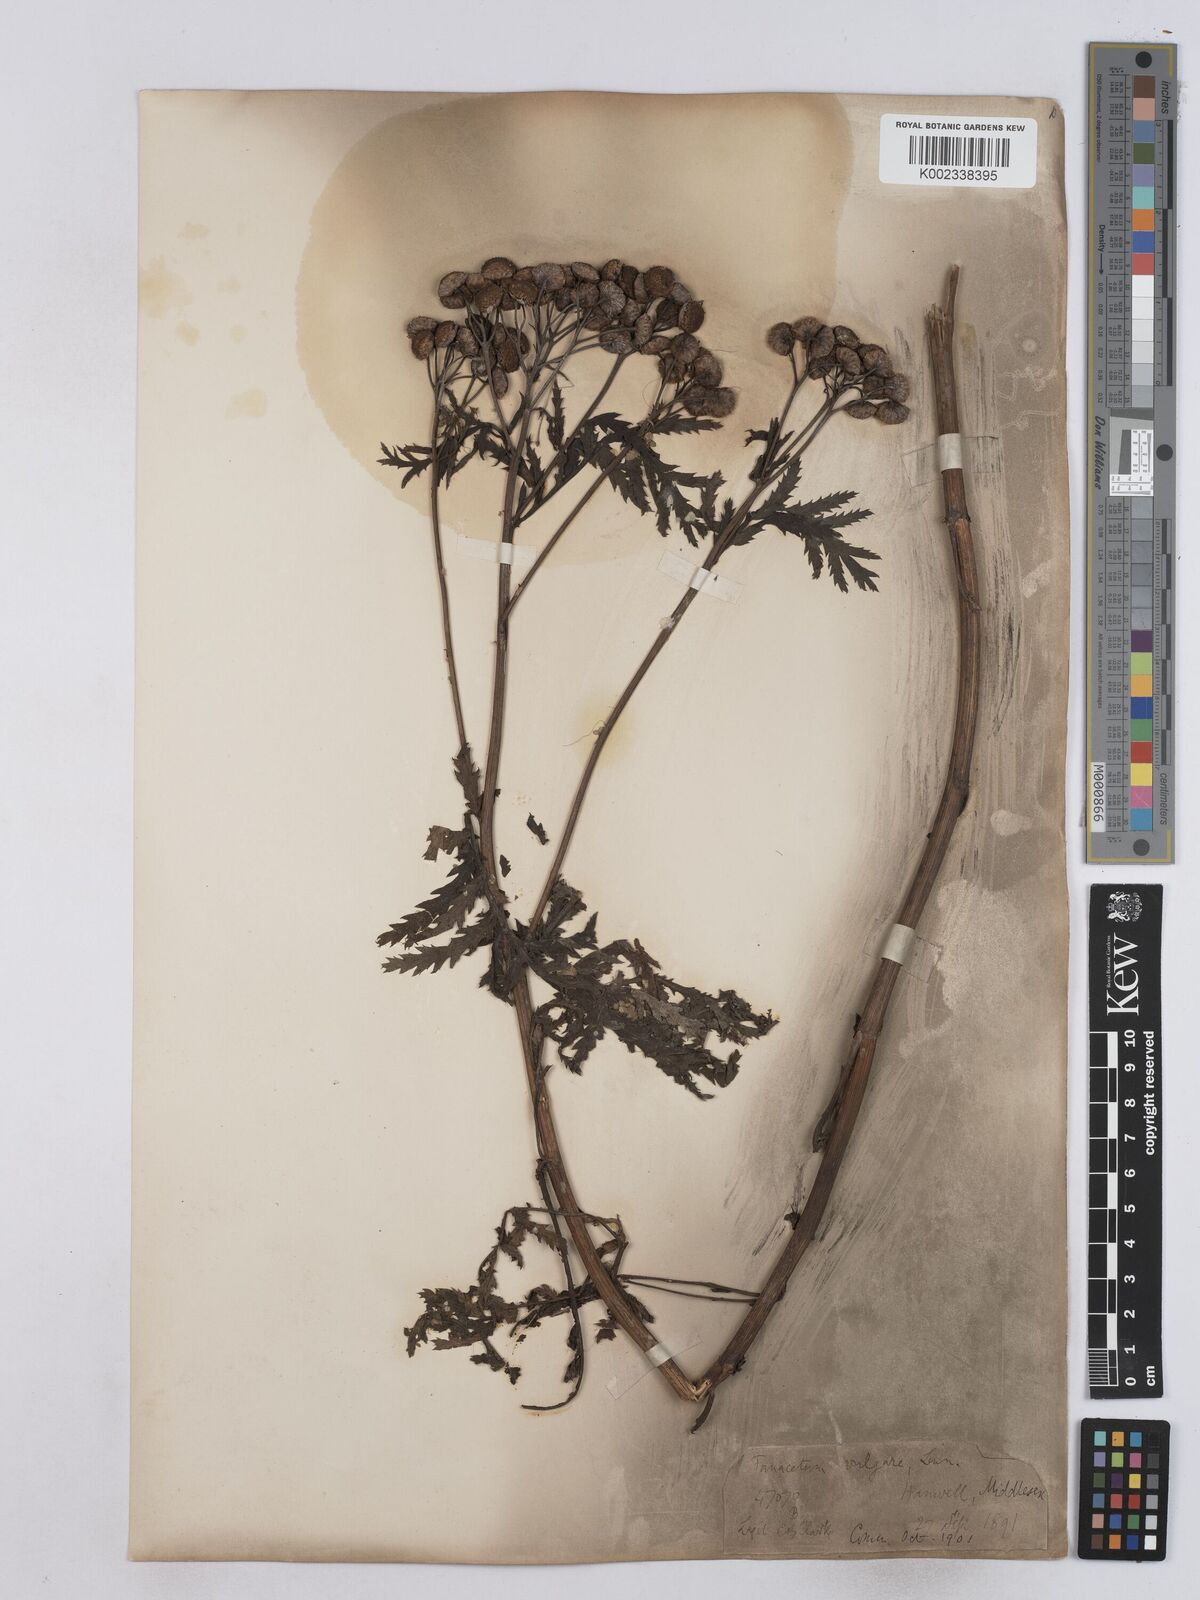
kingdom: Plantae
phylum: Tracheophyta
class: Magnoliopsida
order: Asterales
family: Asteraceae
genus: Tanacetum
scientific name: Tanacetum vulgare
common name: Common tansy
